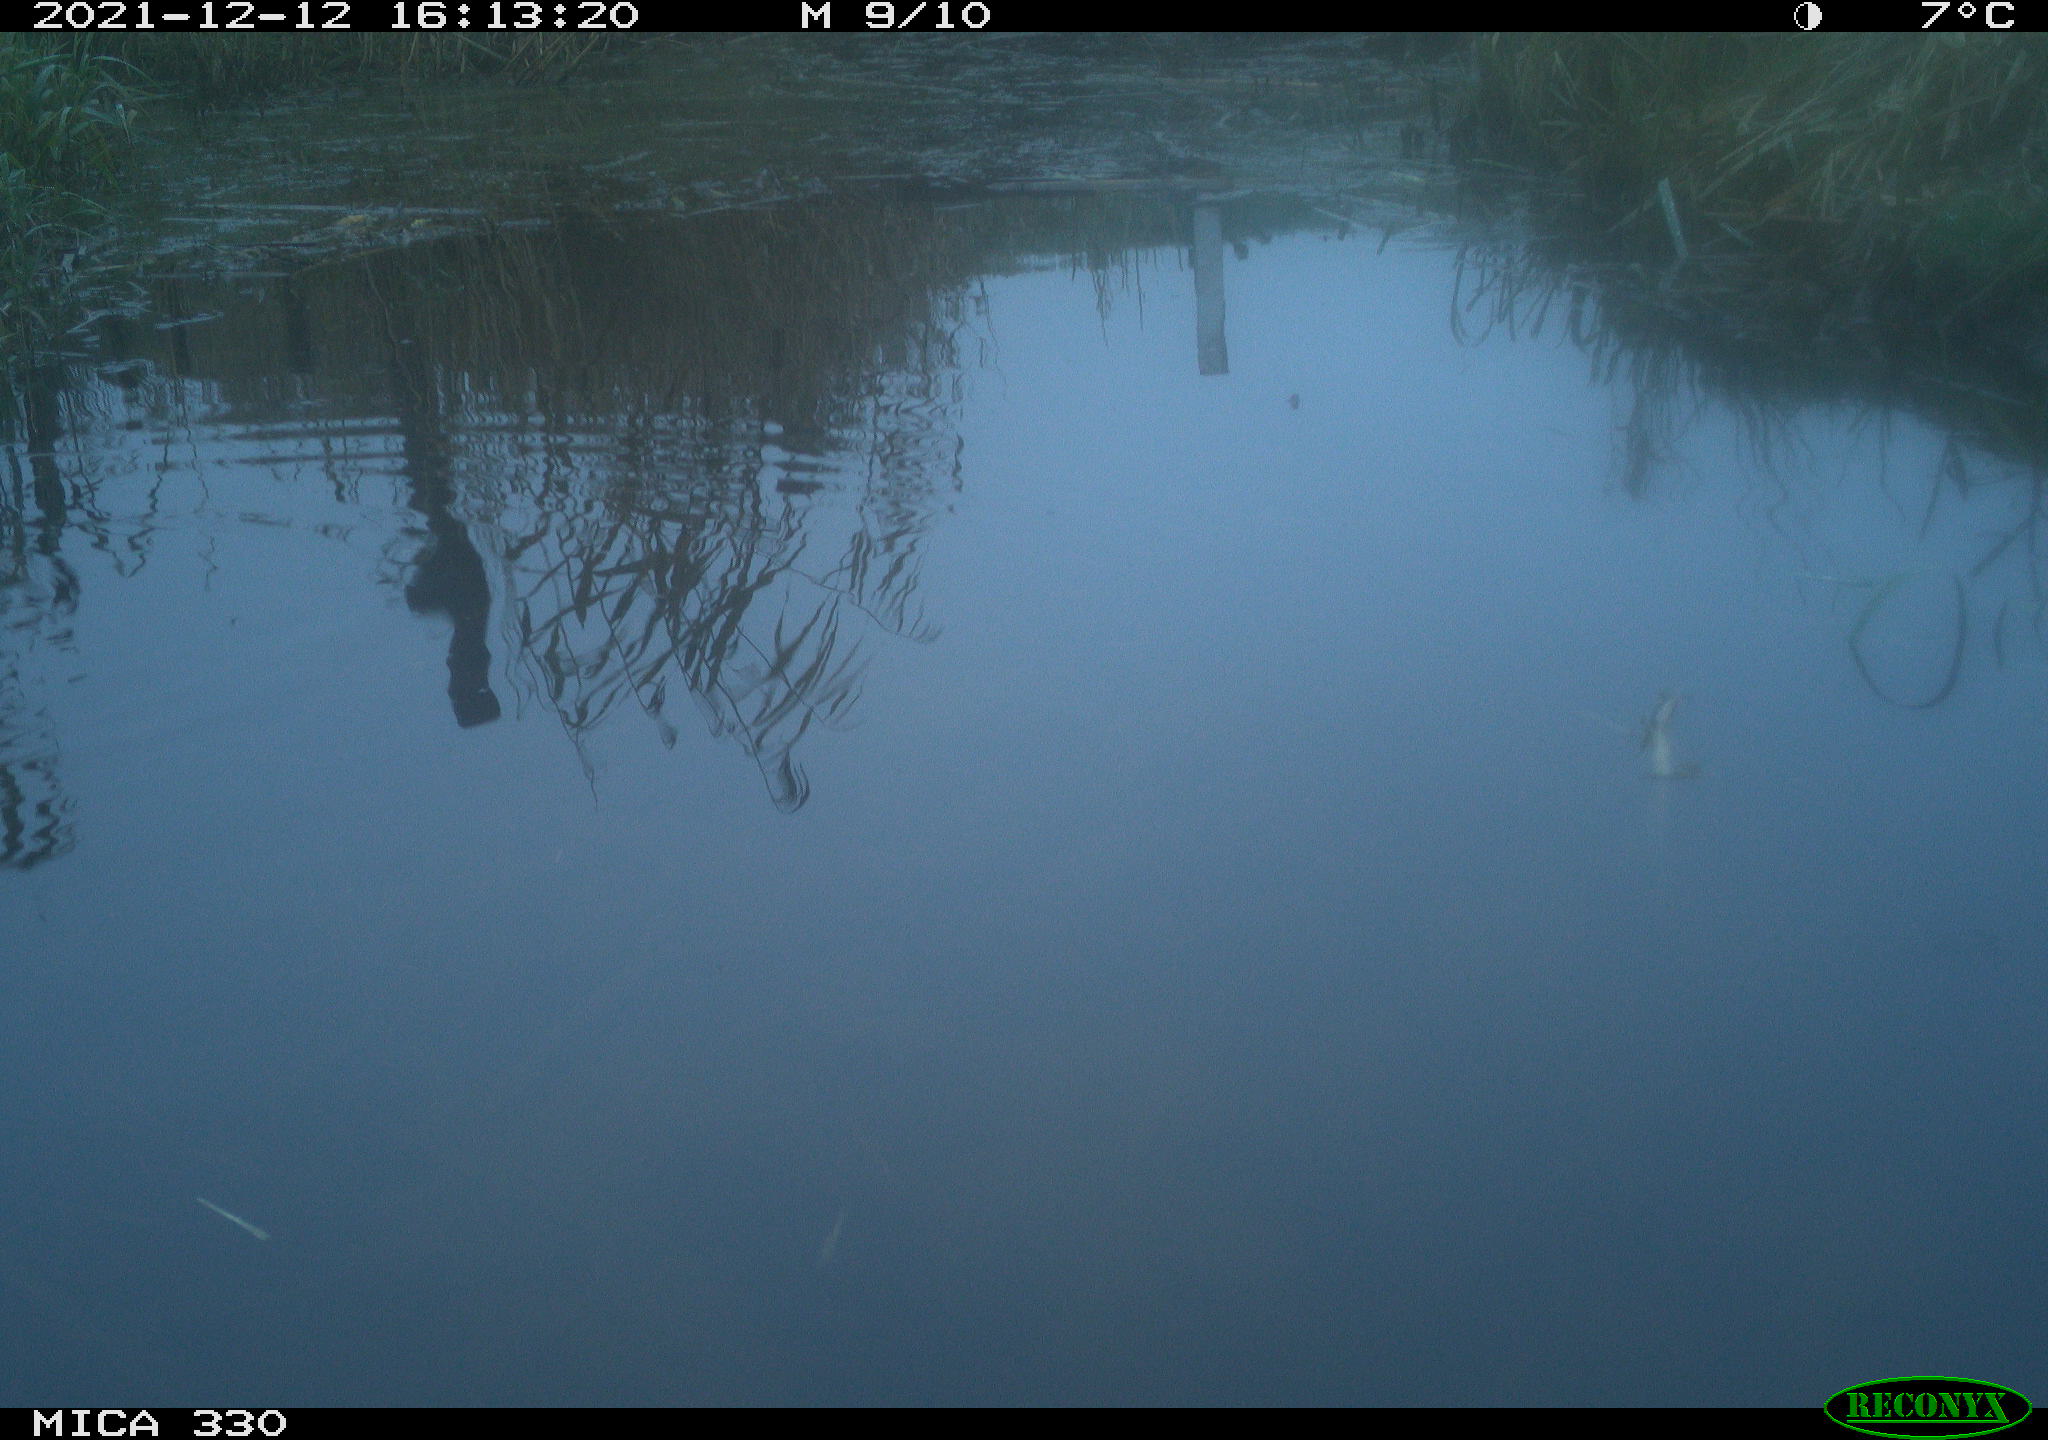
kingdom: Animalia
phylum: Chordata
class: Aves
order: Gruiformes
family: Rallidae
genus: Gallinula
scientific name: Gallinula chloropus
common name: Common moorhen
